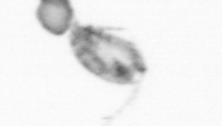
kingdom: Animalia
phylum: Arthropoda
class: Copepoda
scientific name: Copepoda
